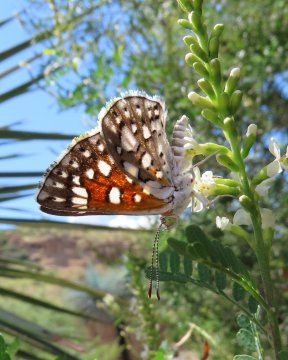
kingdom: Animalia
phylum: Arthropoda
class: Insecta
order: Lepidoptera
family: Riodinidae
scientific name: Riodinidae
